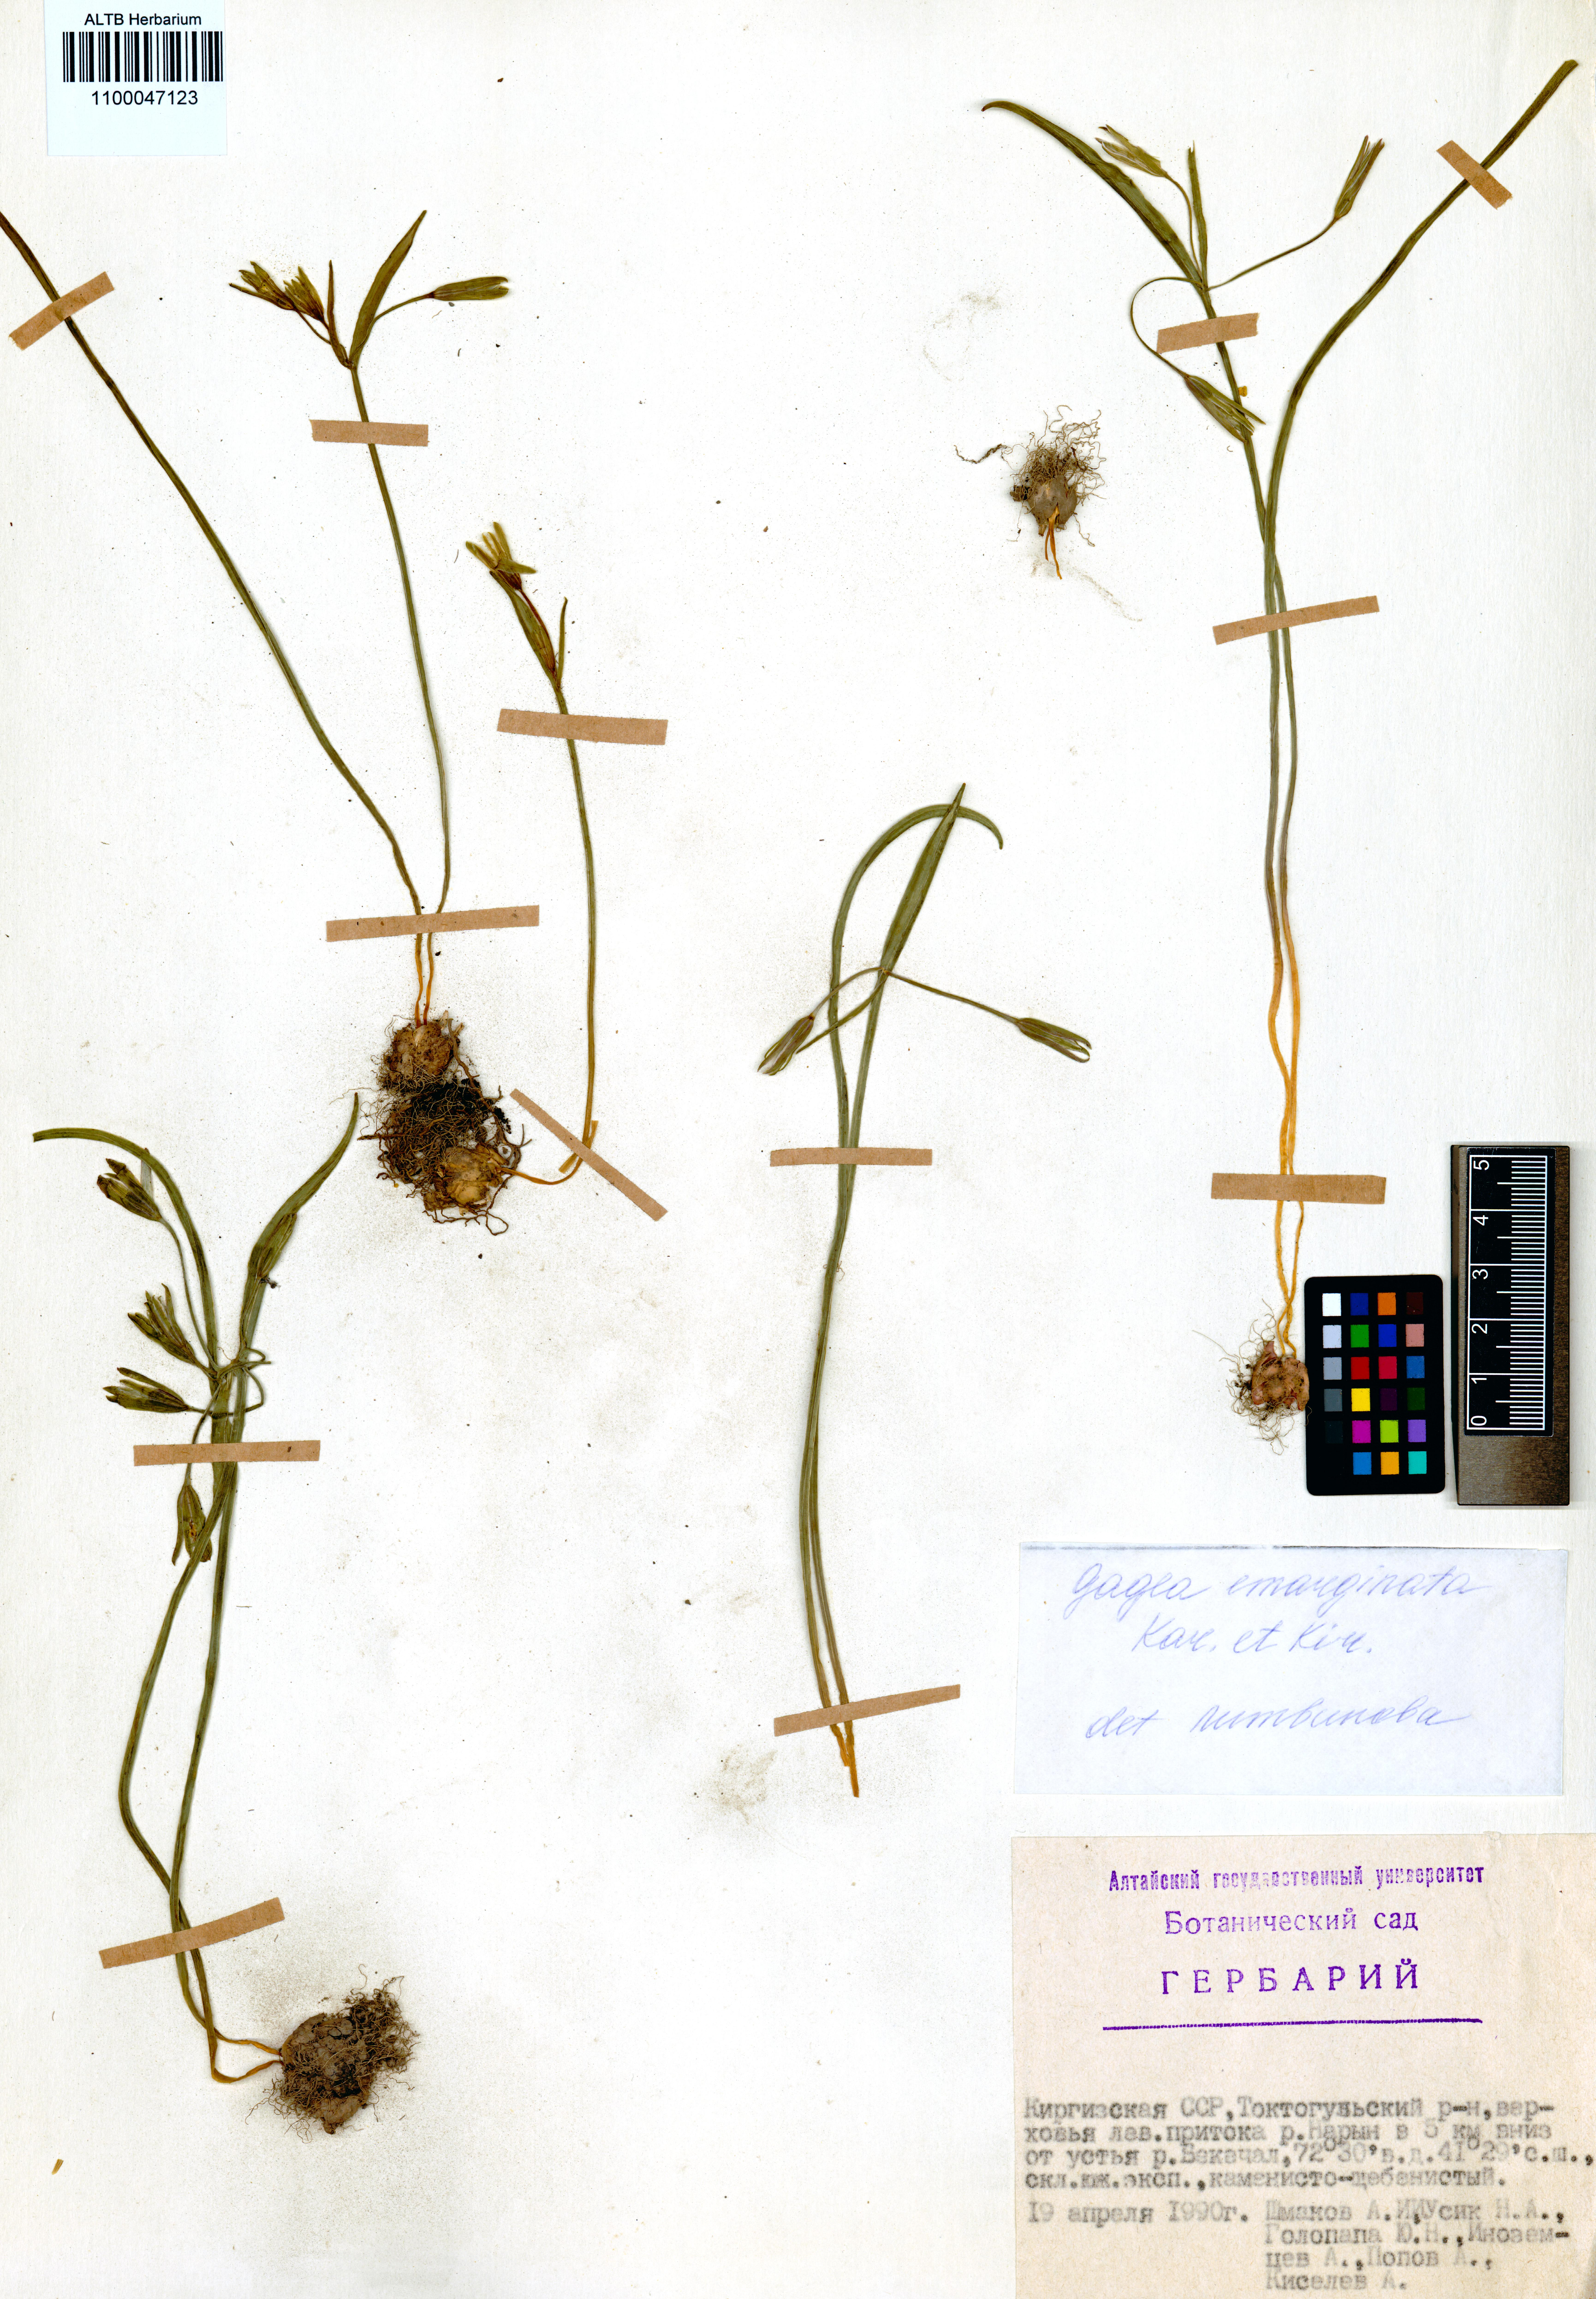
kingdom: Plantae
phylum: Tracheophyta
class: Liliopsida
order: Liliales
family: Liliaceae
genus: Gagea
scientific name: Gagea fragifera
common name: Lily
